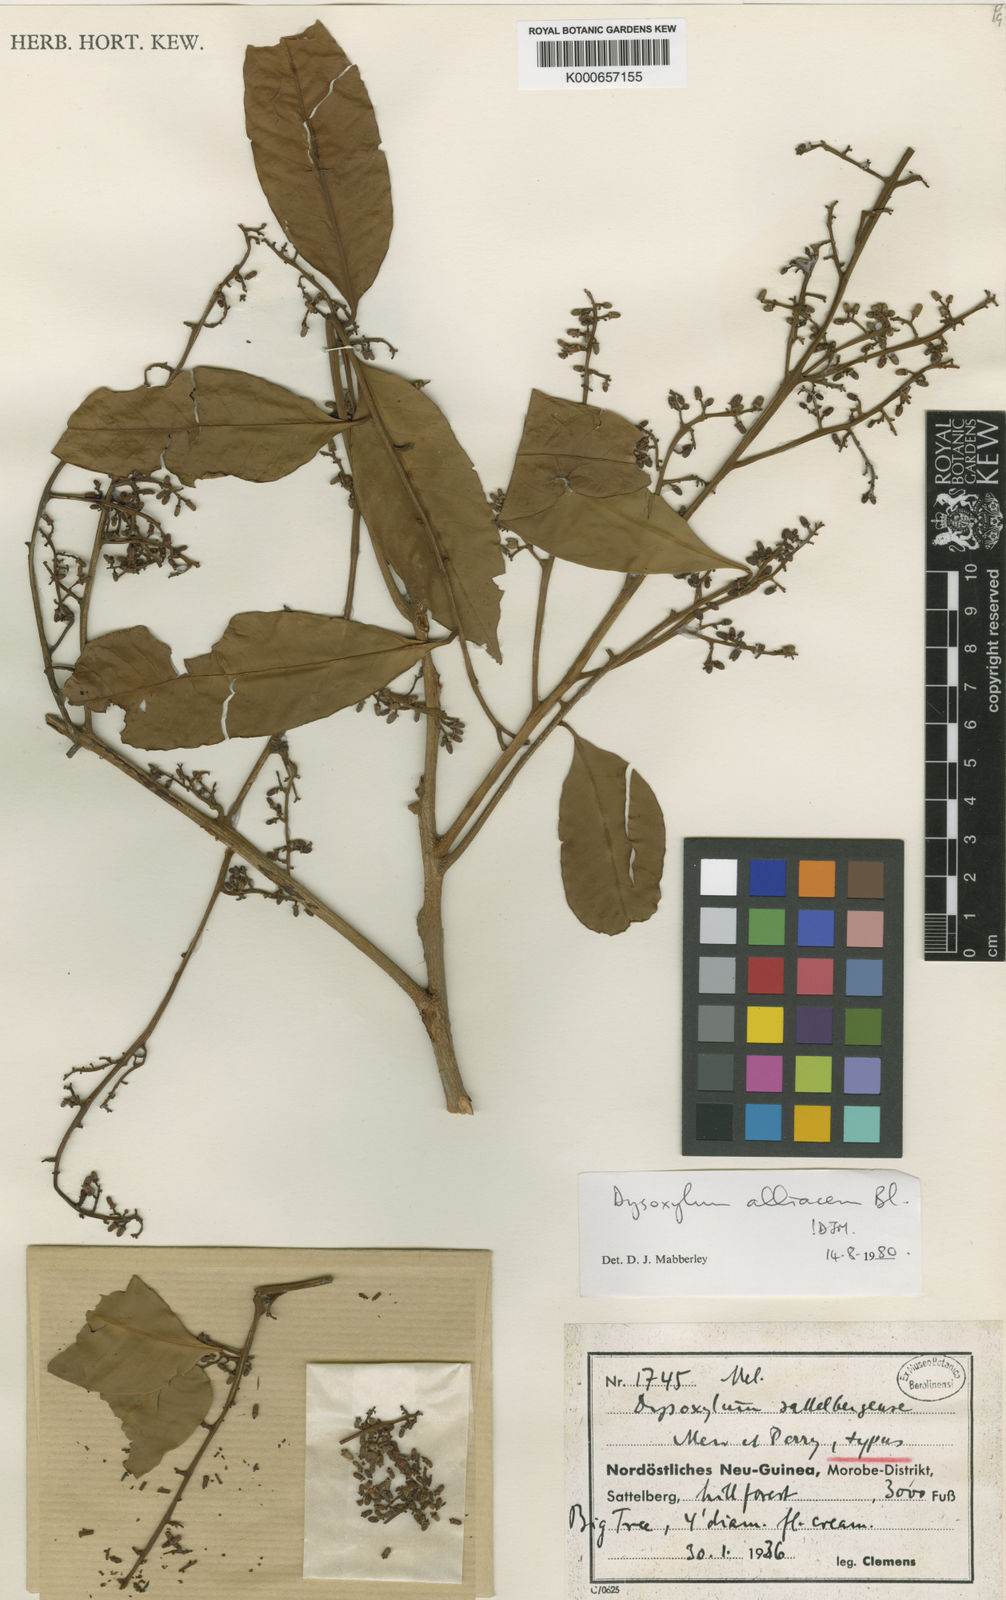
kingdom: Plantae
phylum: Tracheophyta
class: Magnoliopsida
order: Sapindales
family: Meliaceae
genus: Prasoxylon
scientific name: Prasoxylon alliaceum
